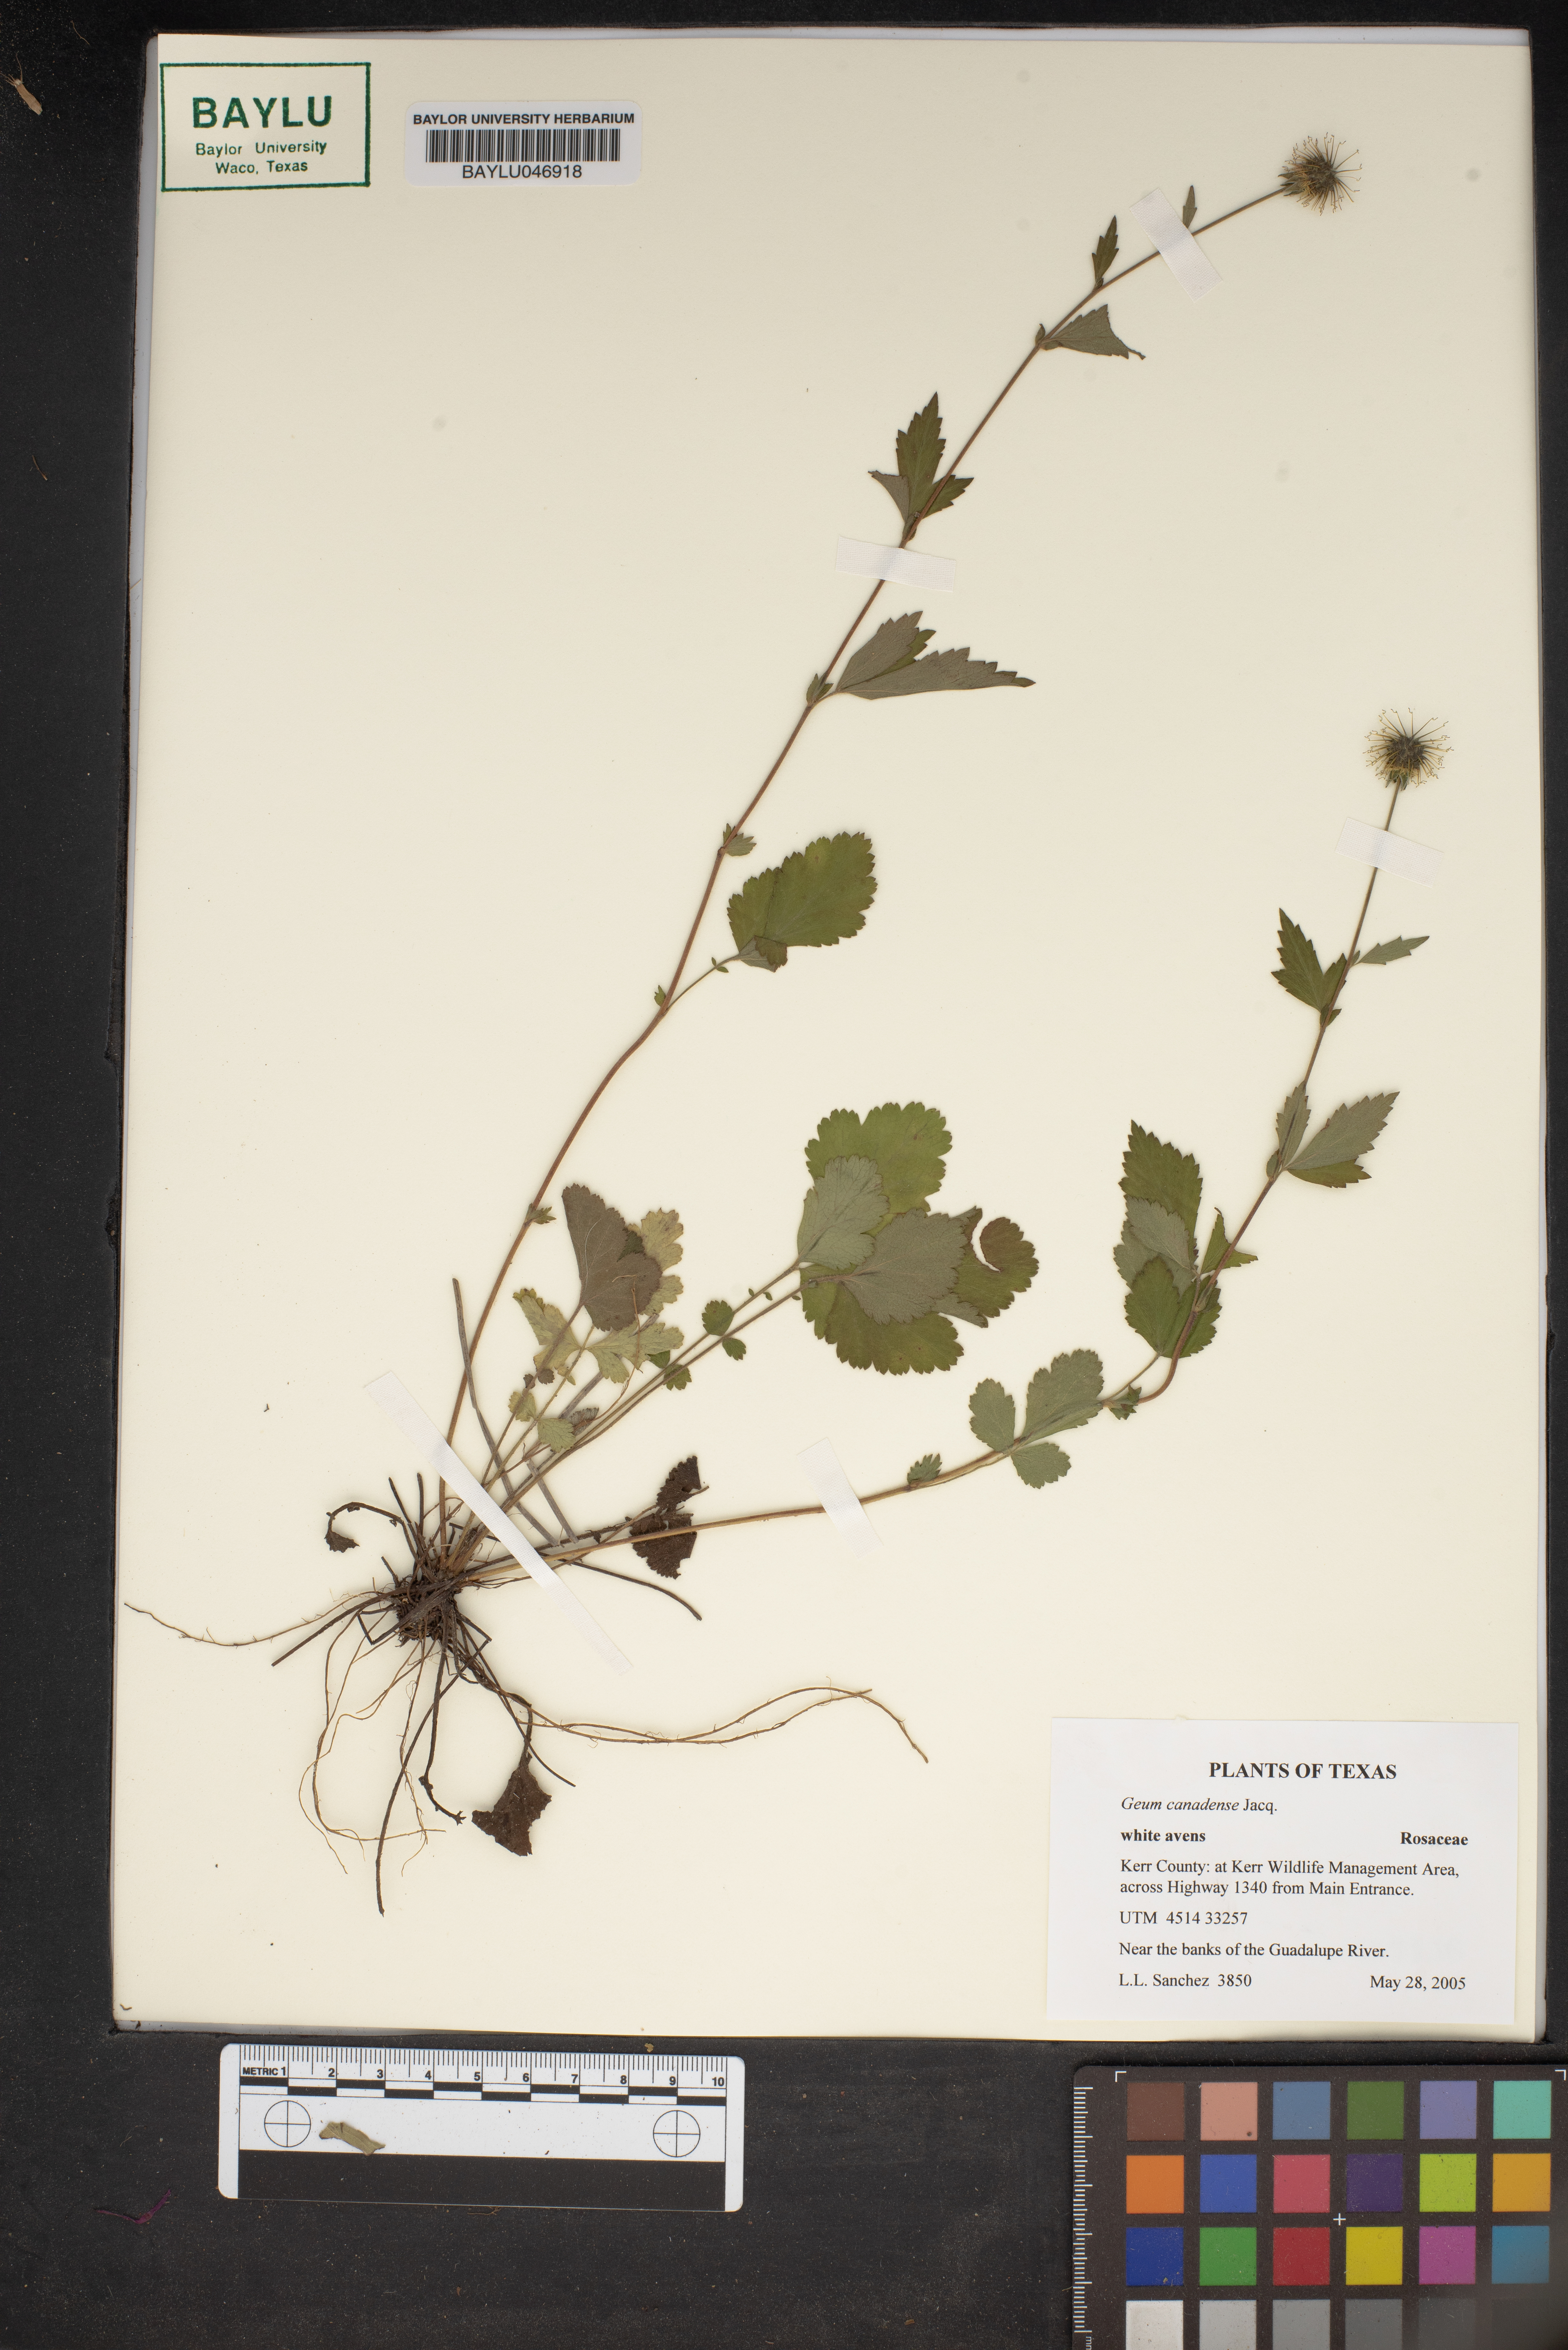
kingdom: Plantae
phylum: Tracheophyta
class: Magnoliopsida
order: Rosales
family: Rosaceae
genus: Geum
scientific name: Geum canadense
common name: White avens
